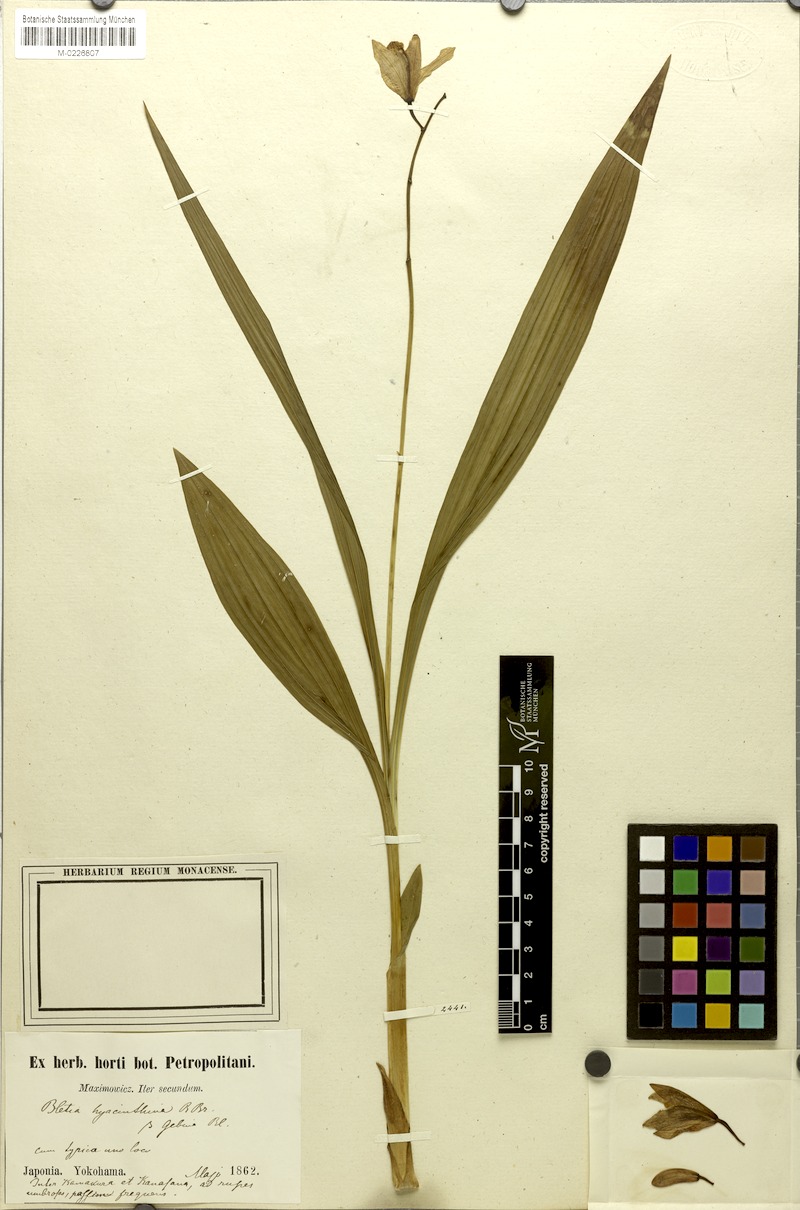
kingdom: Plantae
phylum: Tracheophyta
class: Liliopsida
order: Asparagales
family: Orchidaceae
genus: Bletilla
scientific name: Bletilla striata
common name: Hyacinth orchid
